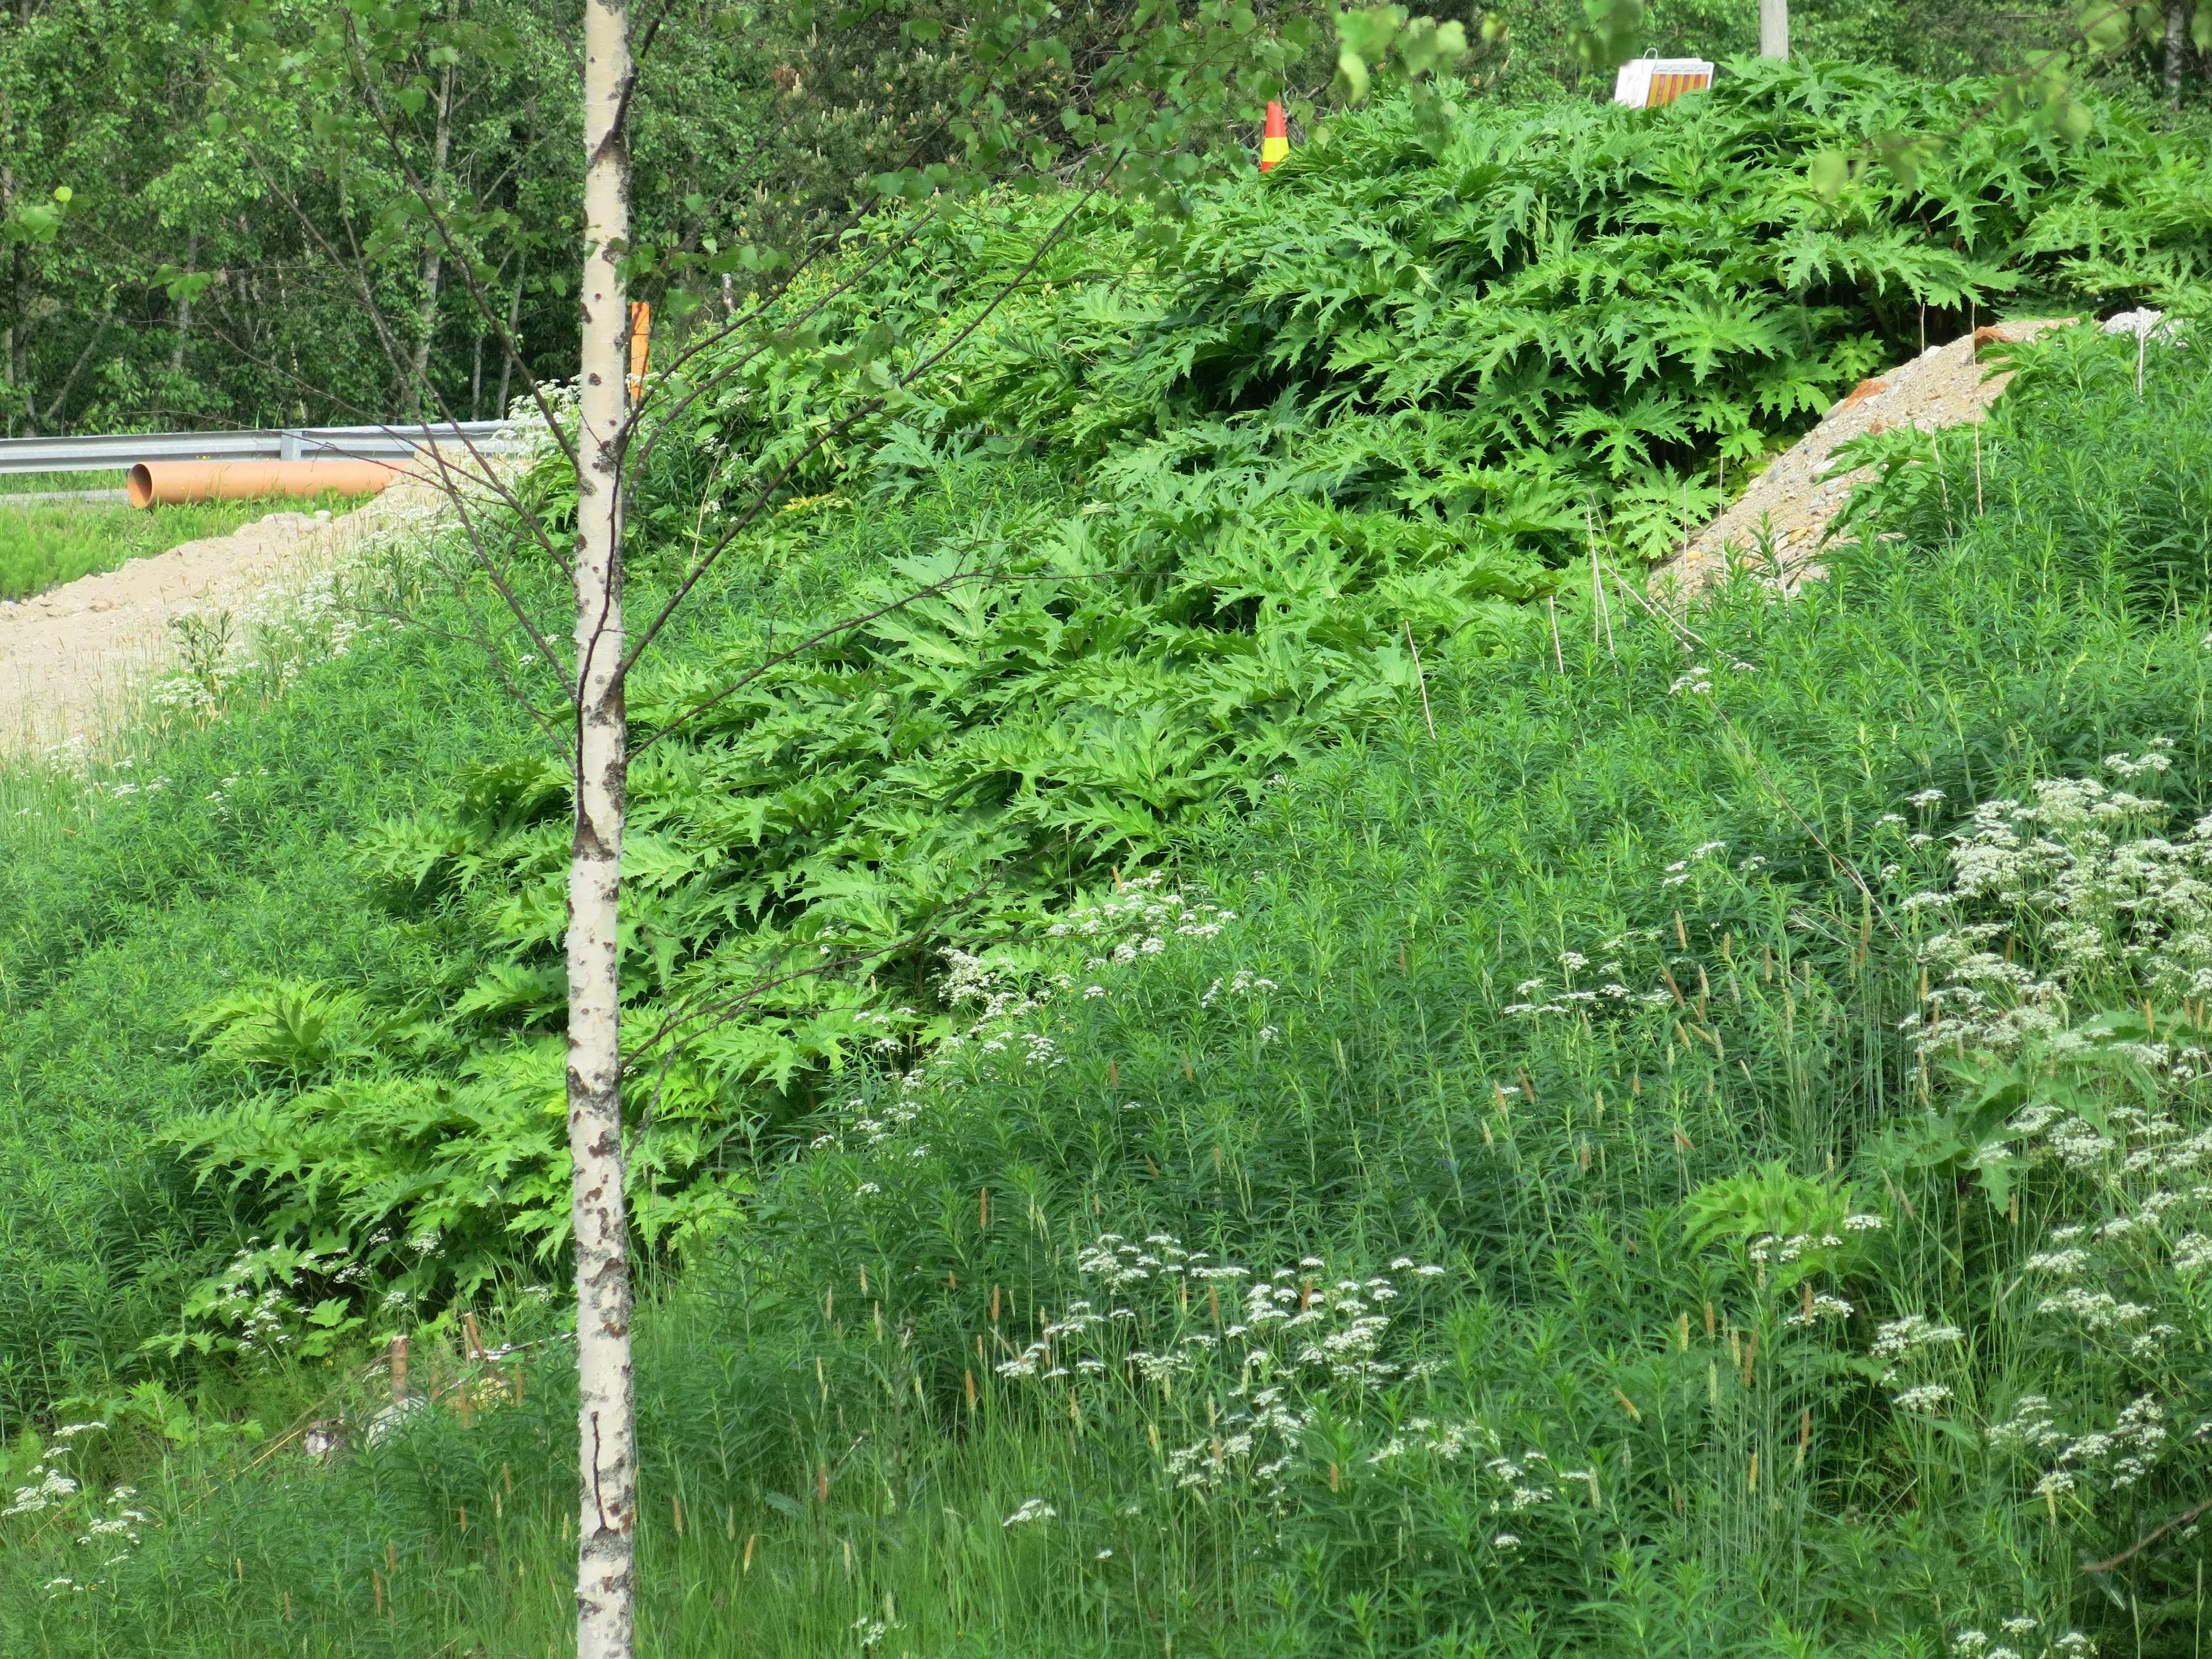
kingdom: Plantae
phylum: Tracheophyta
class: Magnoliopsida
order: Apiales
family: Apiaceae
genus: Heracleum
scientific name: Heracleum
